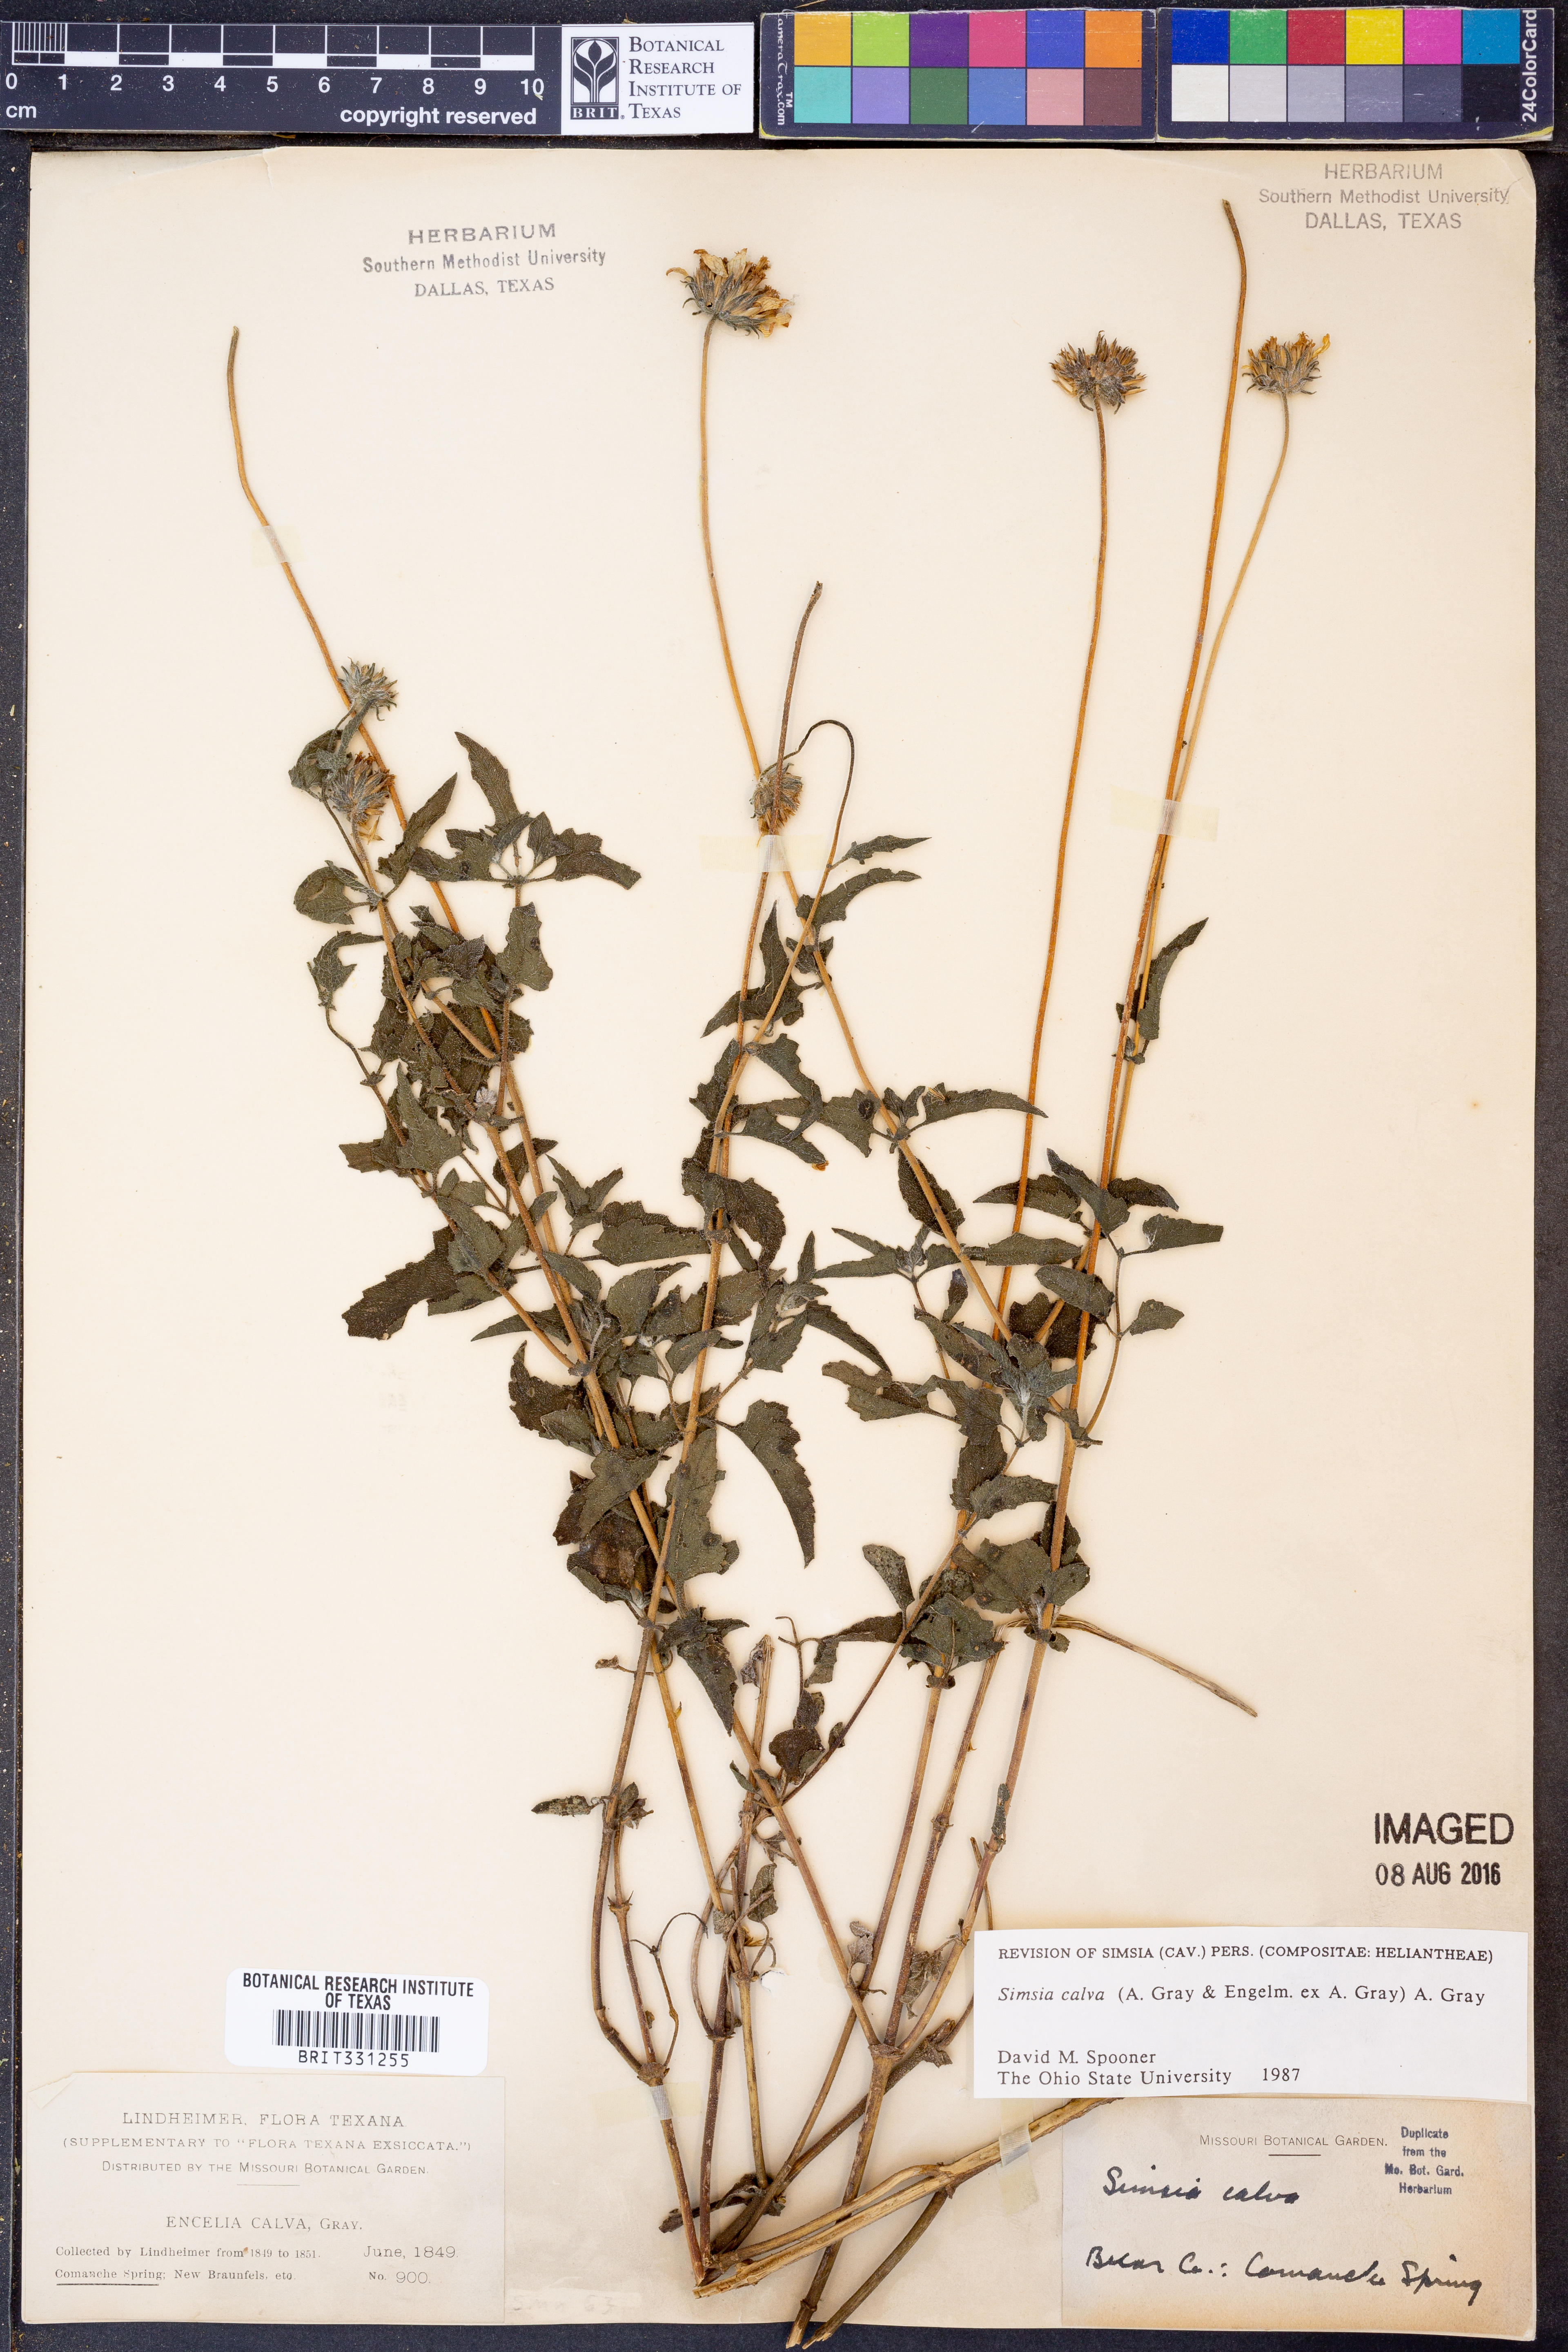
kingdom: Plantae
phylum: Tracheophyta
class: Magnoliopsida
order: Asterales
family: Asteraceae
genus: Simsia
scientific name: Simsia calva
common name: Awnless bush-sunflower
